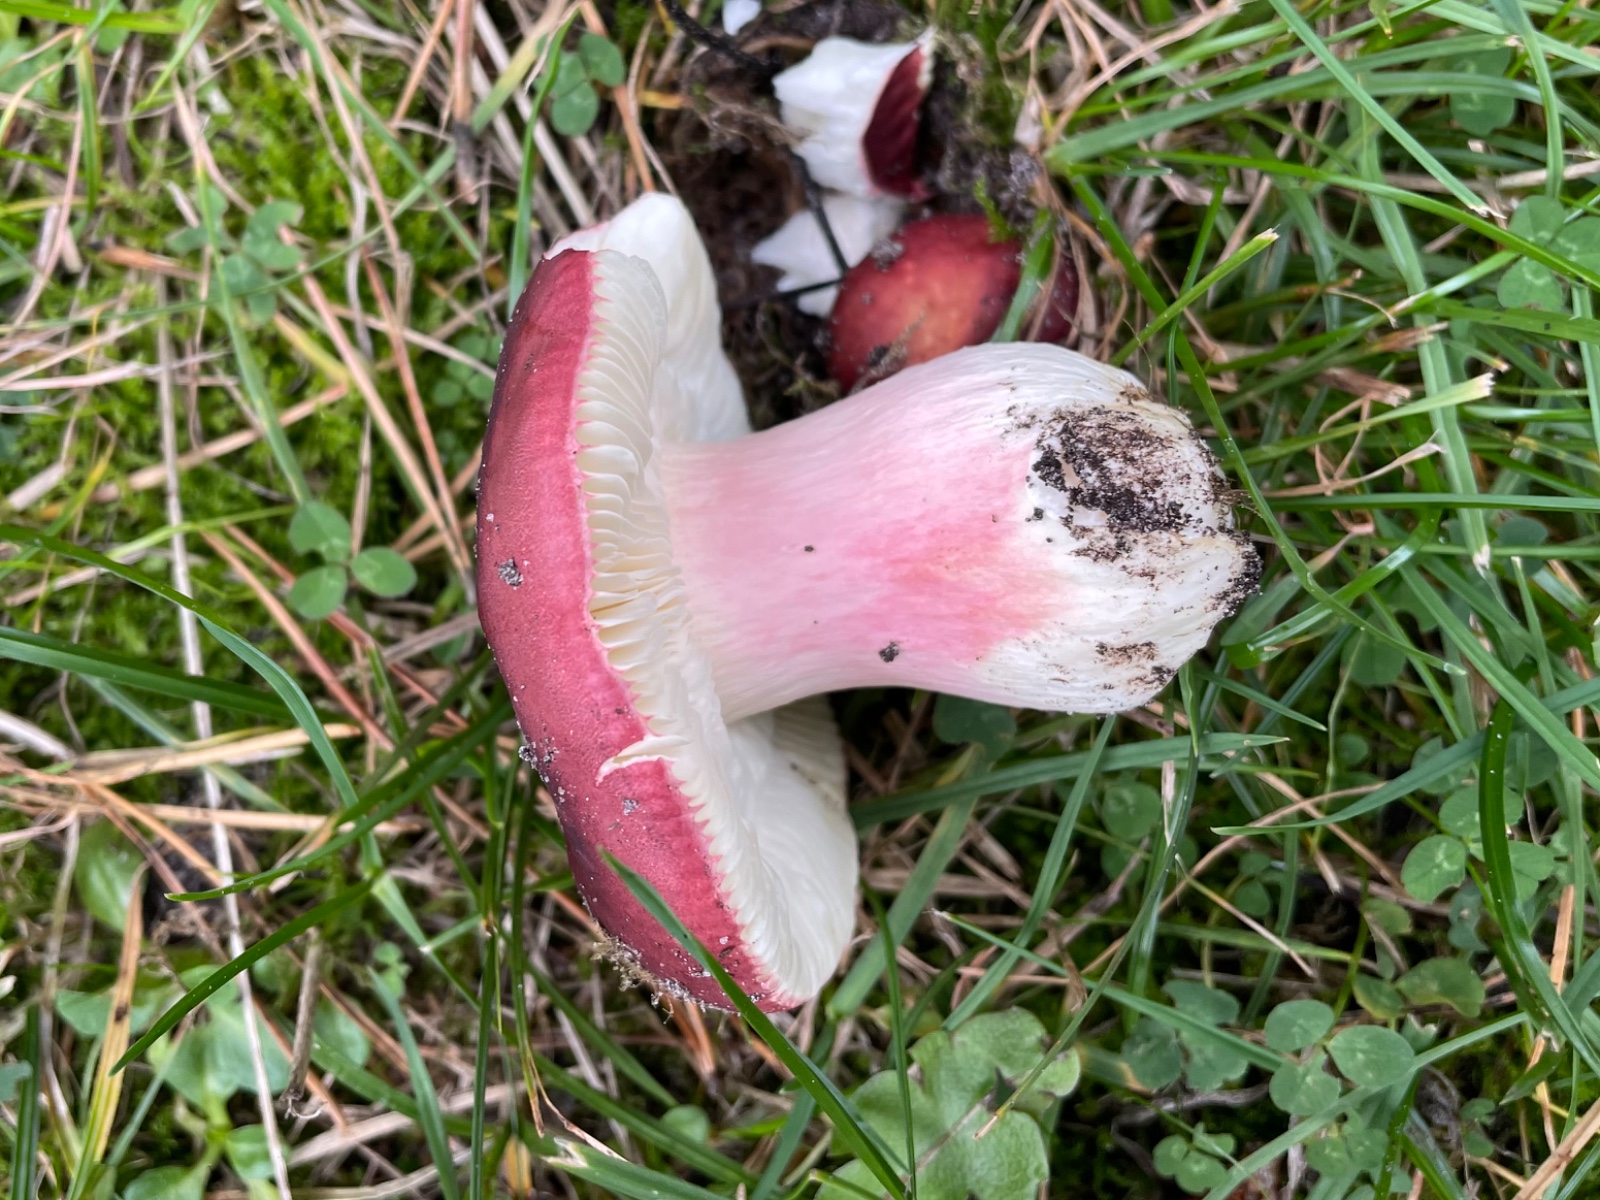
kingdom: Fungi
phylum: Basidiomycota
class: Agaricomycetes
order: Russulales
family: Russulaceae
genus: Russula
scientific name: Russula xerampelina
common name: hummer-skørhat
